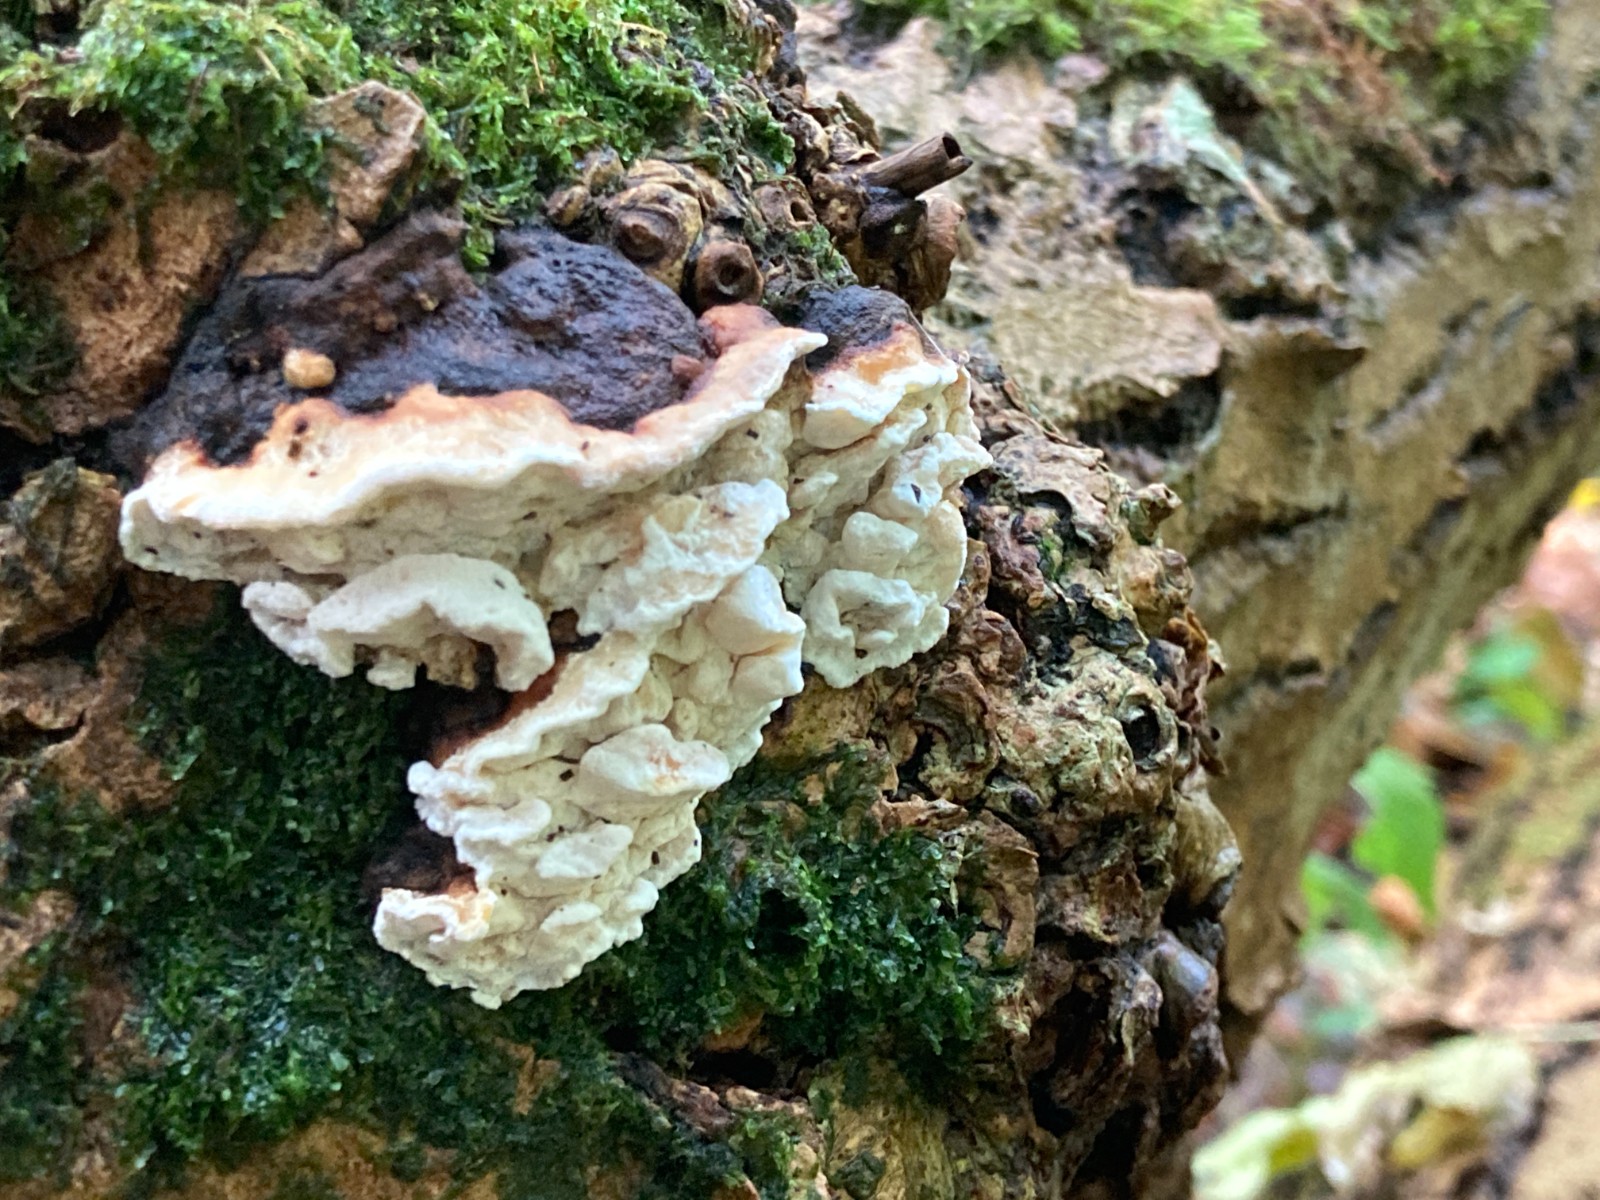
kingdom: Fungi
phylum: Basidiomycota
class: Agaricomycetes
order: Polyporales
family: Incrustoporiaceae
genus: Skeletocutis
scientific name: Skeletocutis nemoralis
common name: stor krystalporesvamp
